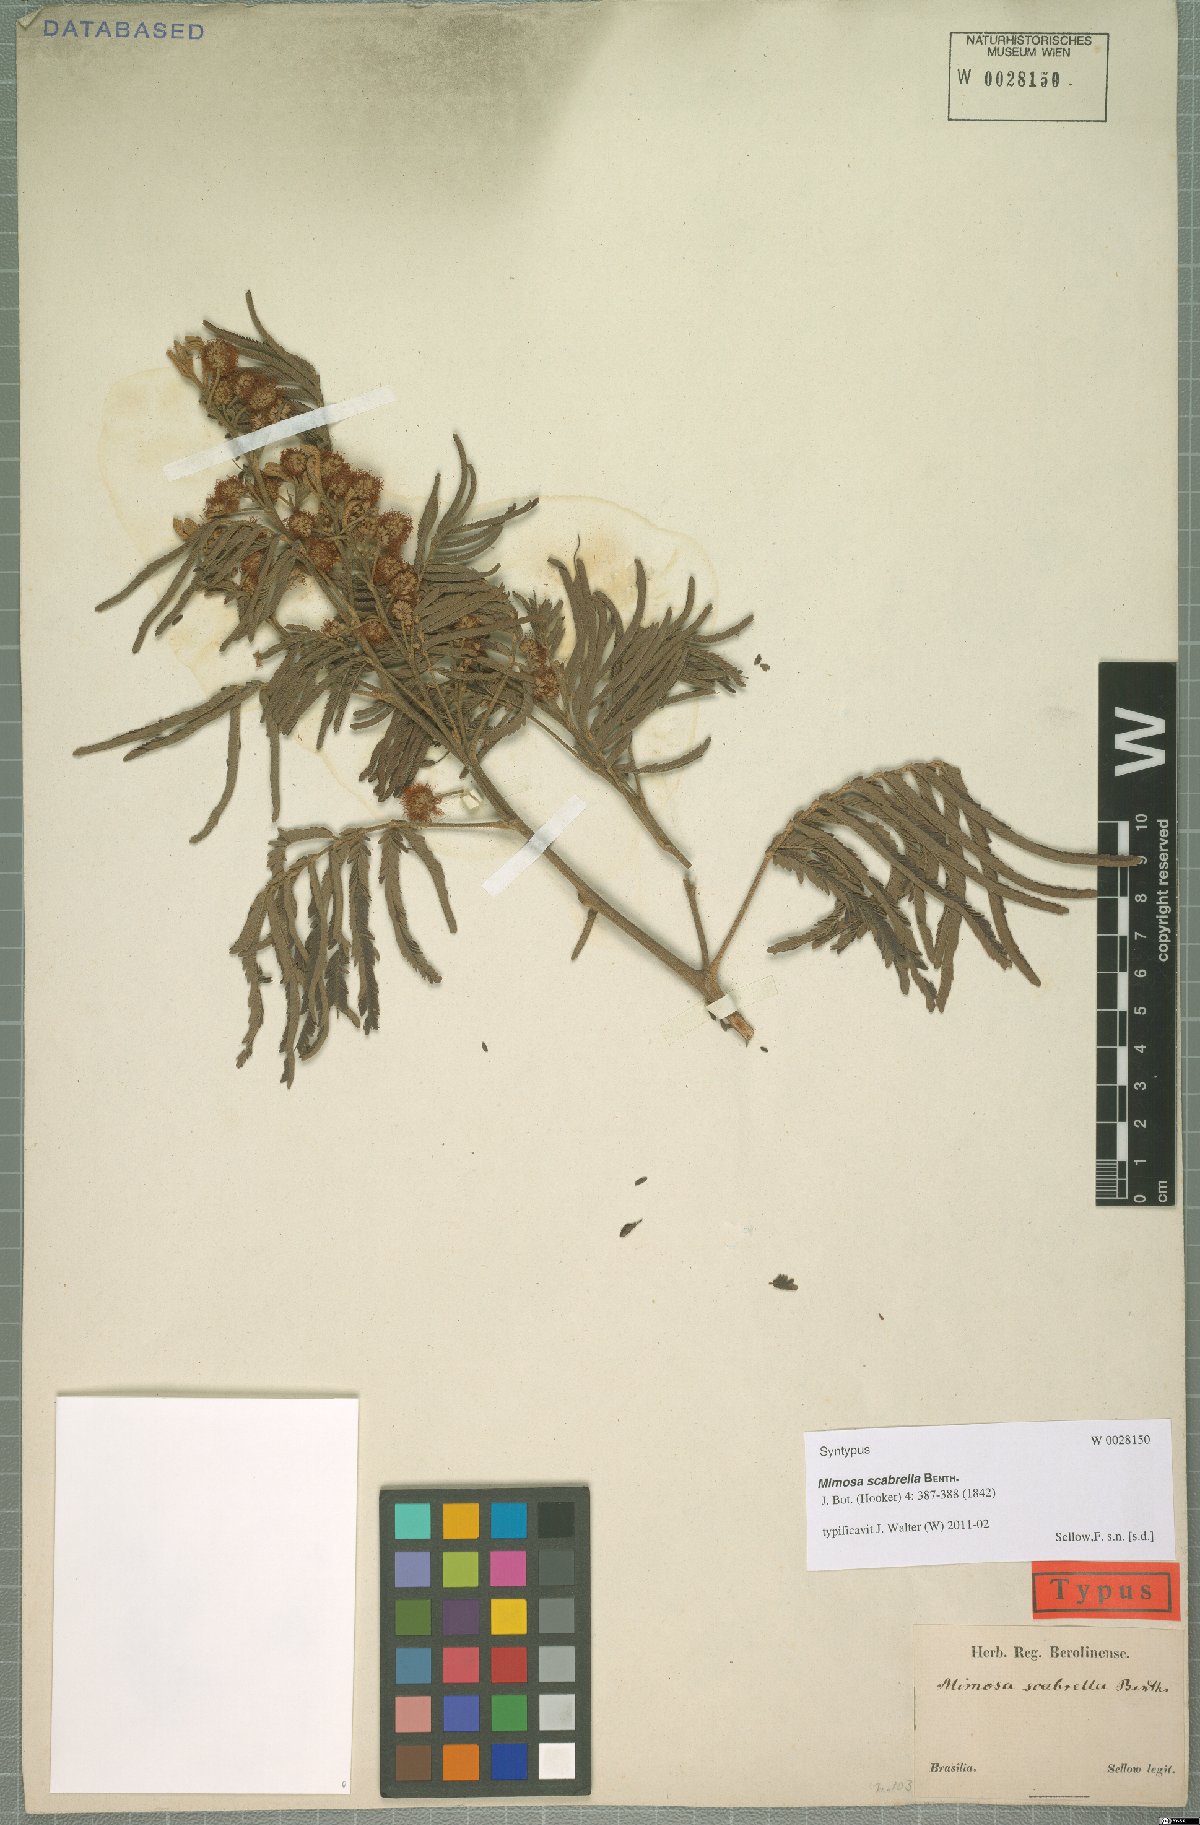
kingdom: Plantae
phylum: Tracheophyta
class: Magnoliopsida
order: Fabales
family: Fabaceae
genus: Mimosa
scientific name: Mimosa scabrella
